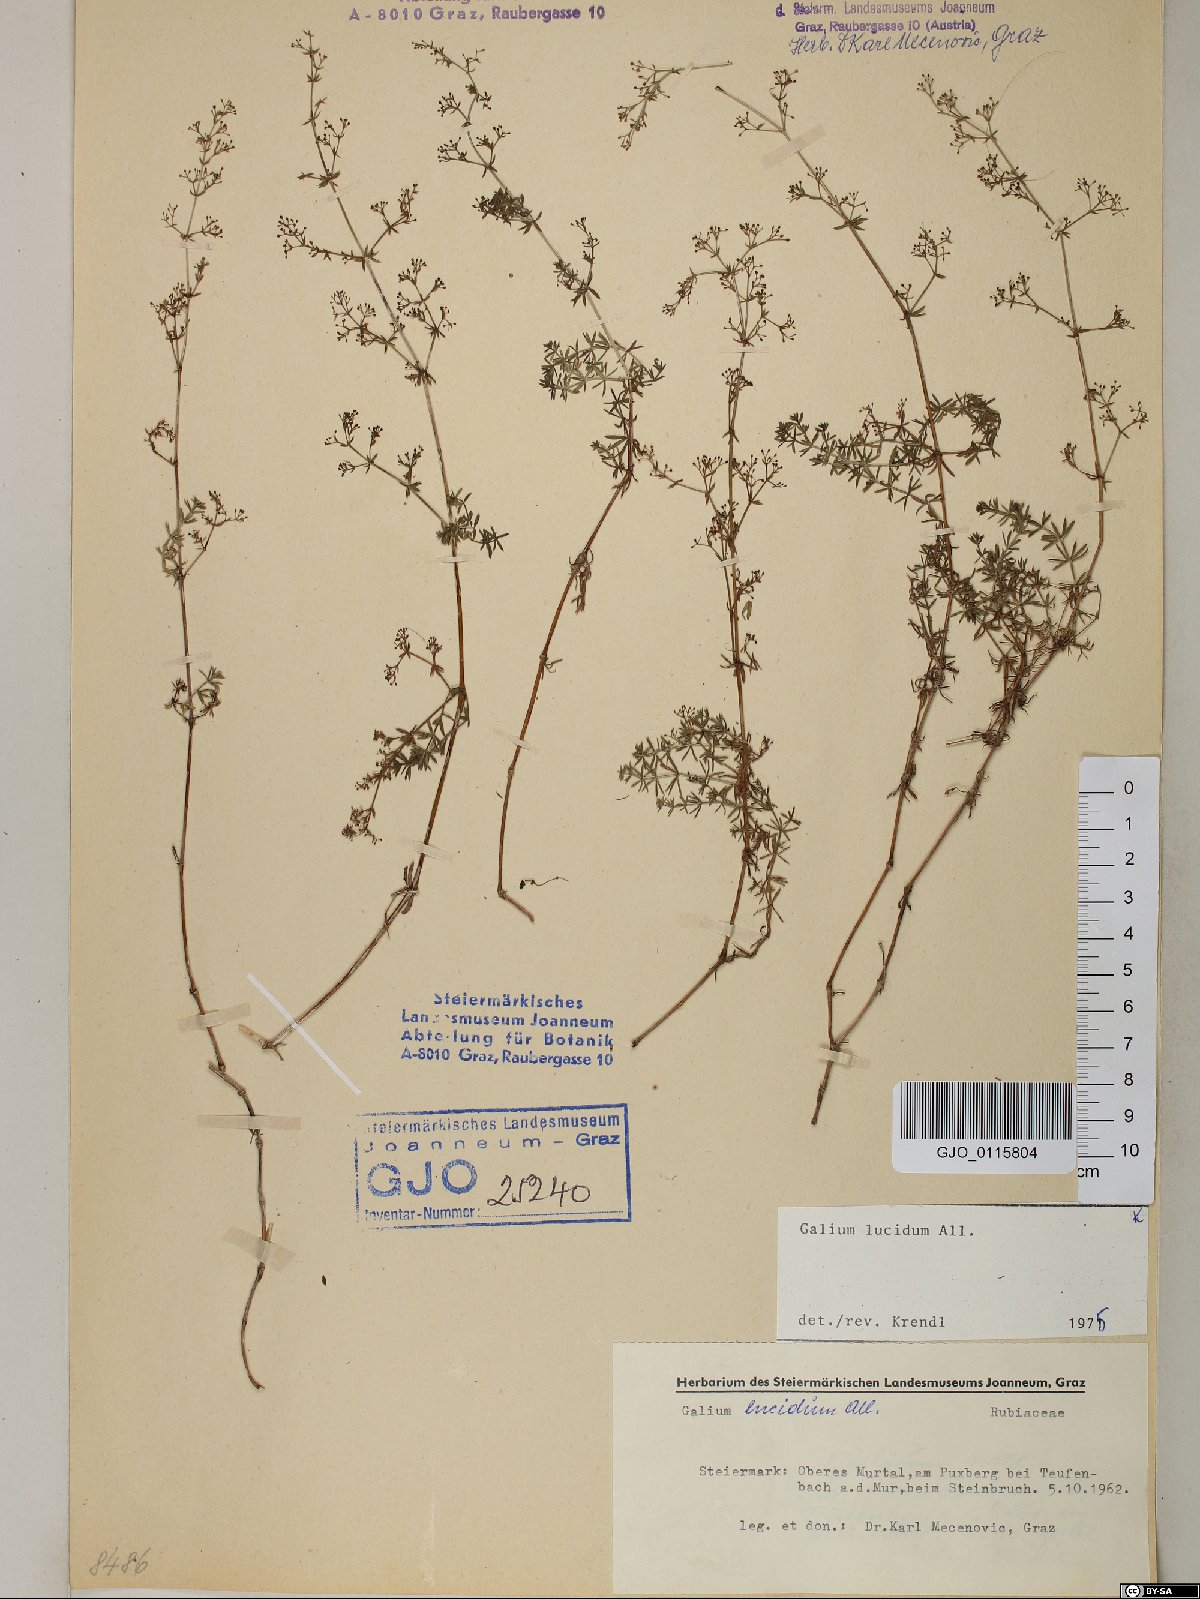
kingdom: Plantae
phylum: Tracheophyta
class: Magnoliopsida
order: Gentianales
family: Rubiaceae
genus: Galium
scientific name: Galium lucidum
